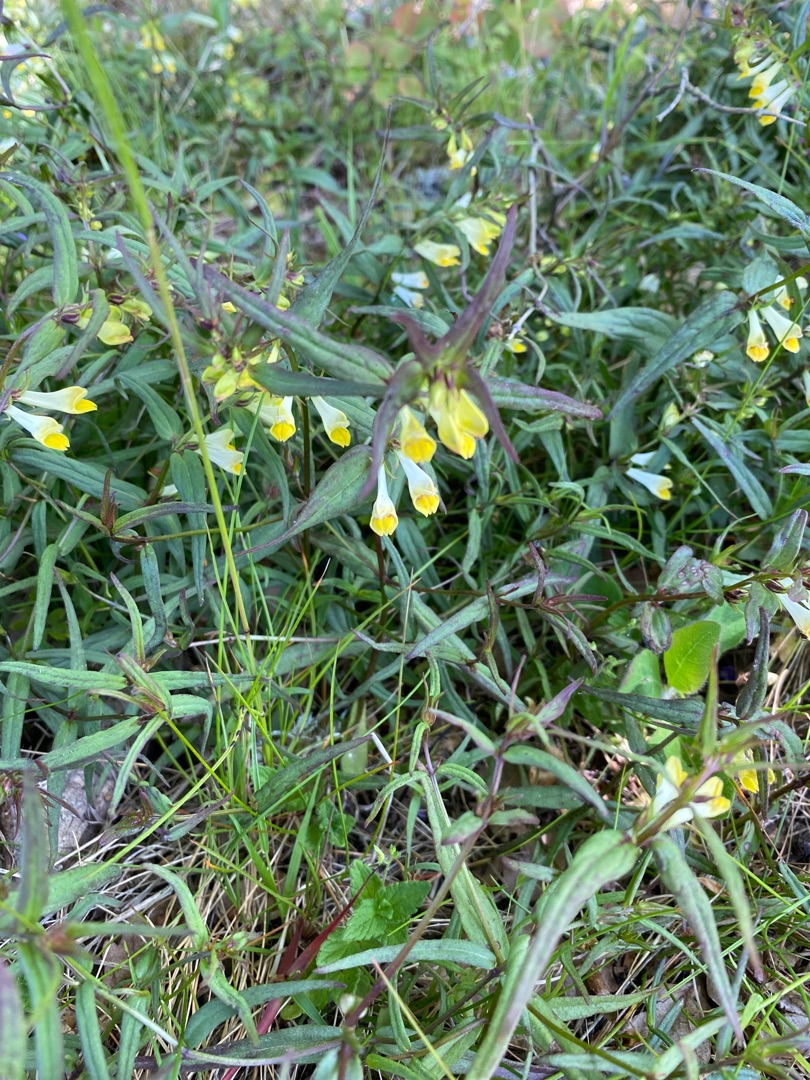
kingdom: Plantae
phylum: Tracheophyta
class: Magnoliopsida
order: Lamiales
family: Orobanchaceae
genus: Melampyrum
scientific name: Melampyrum pratense
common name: Almindelig kohvede
